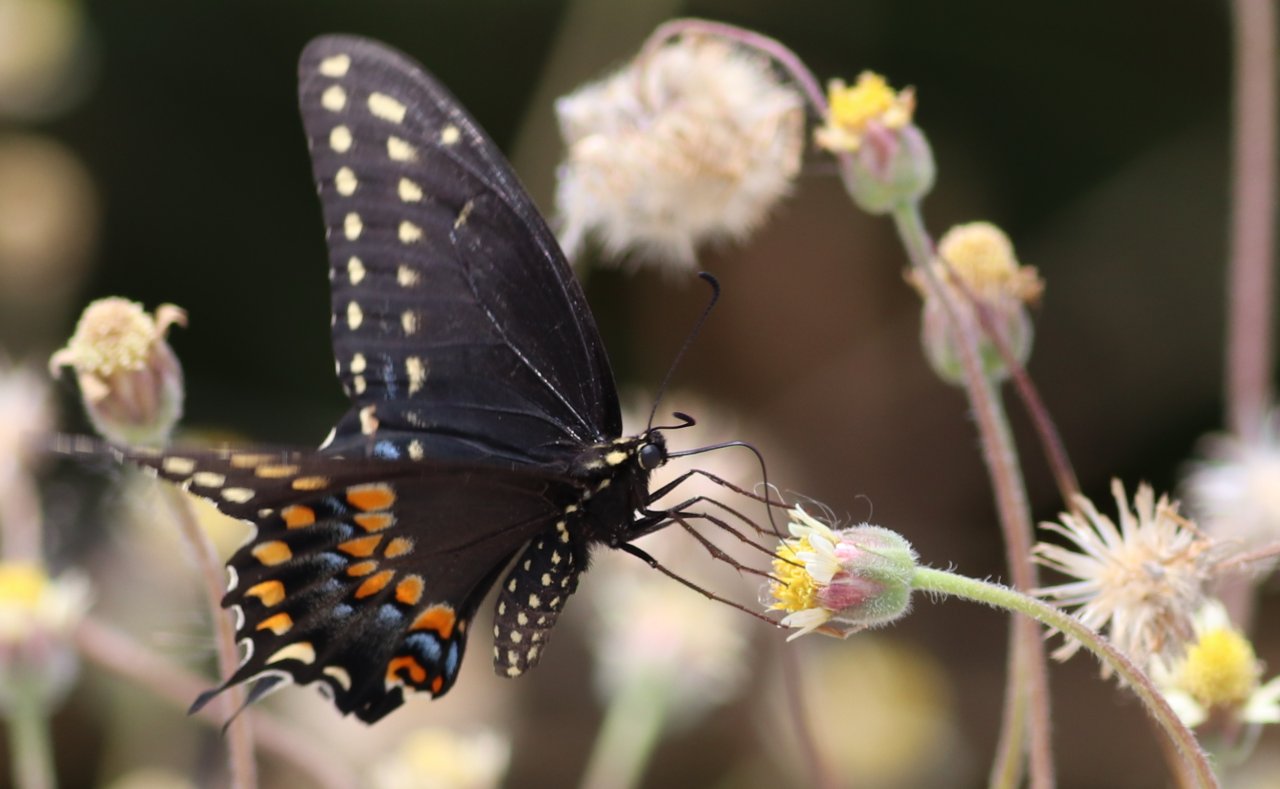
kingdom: Animalia
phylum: Arthropoda
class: Insecta
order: Lepidoptera
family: Papilionidae
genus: Papilio
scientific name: Papilio polyxenes
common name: Black Swallowtail
